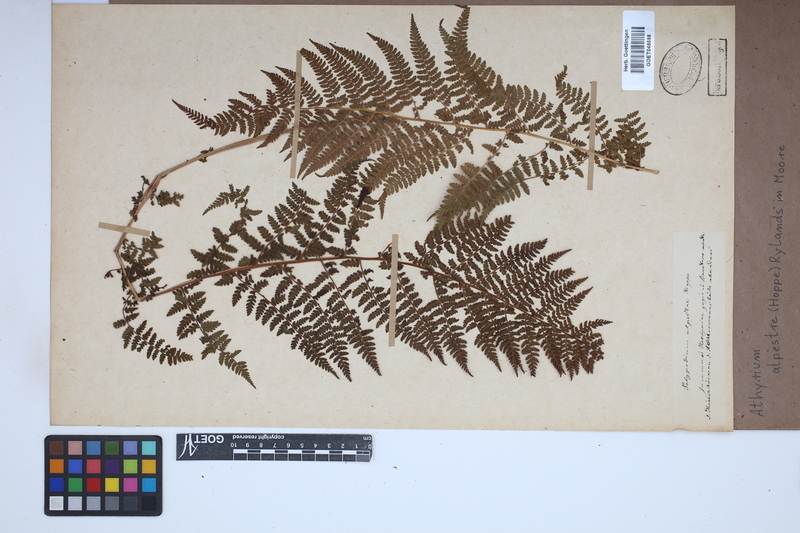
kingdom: Plantae
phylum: Tracheophyta
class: Polypodiopsida
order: Polypodiales
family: Athyriaceae
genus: Pseudathyrium
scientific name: Pseudathyrium alpestre
